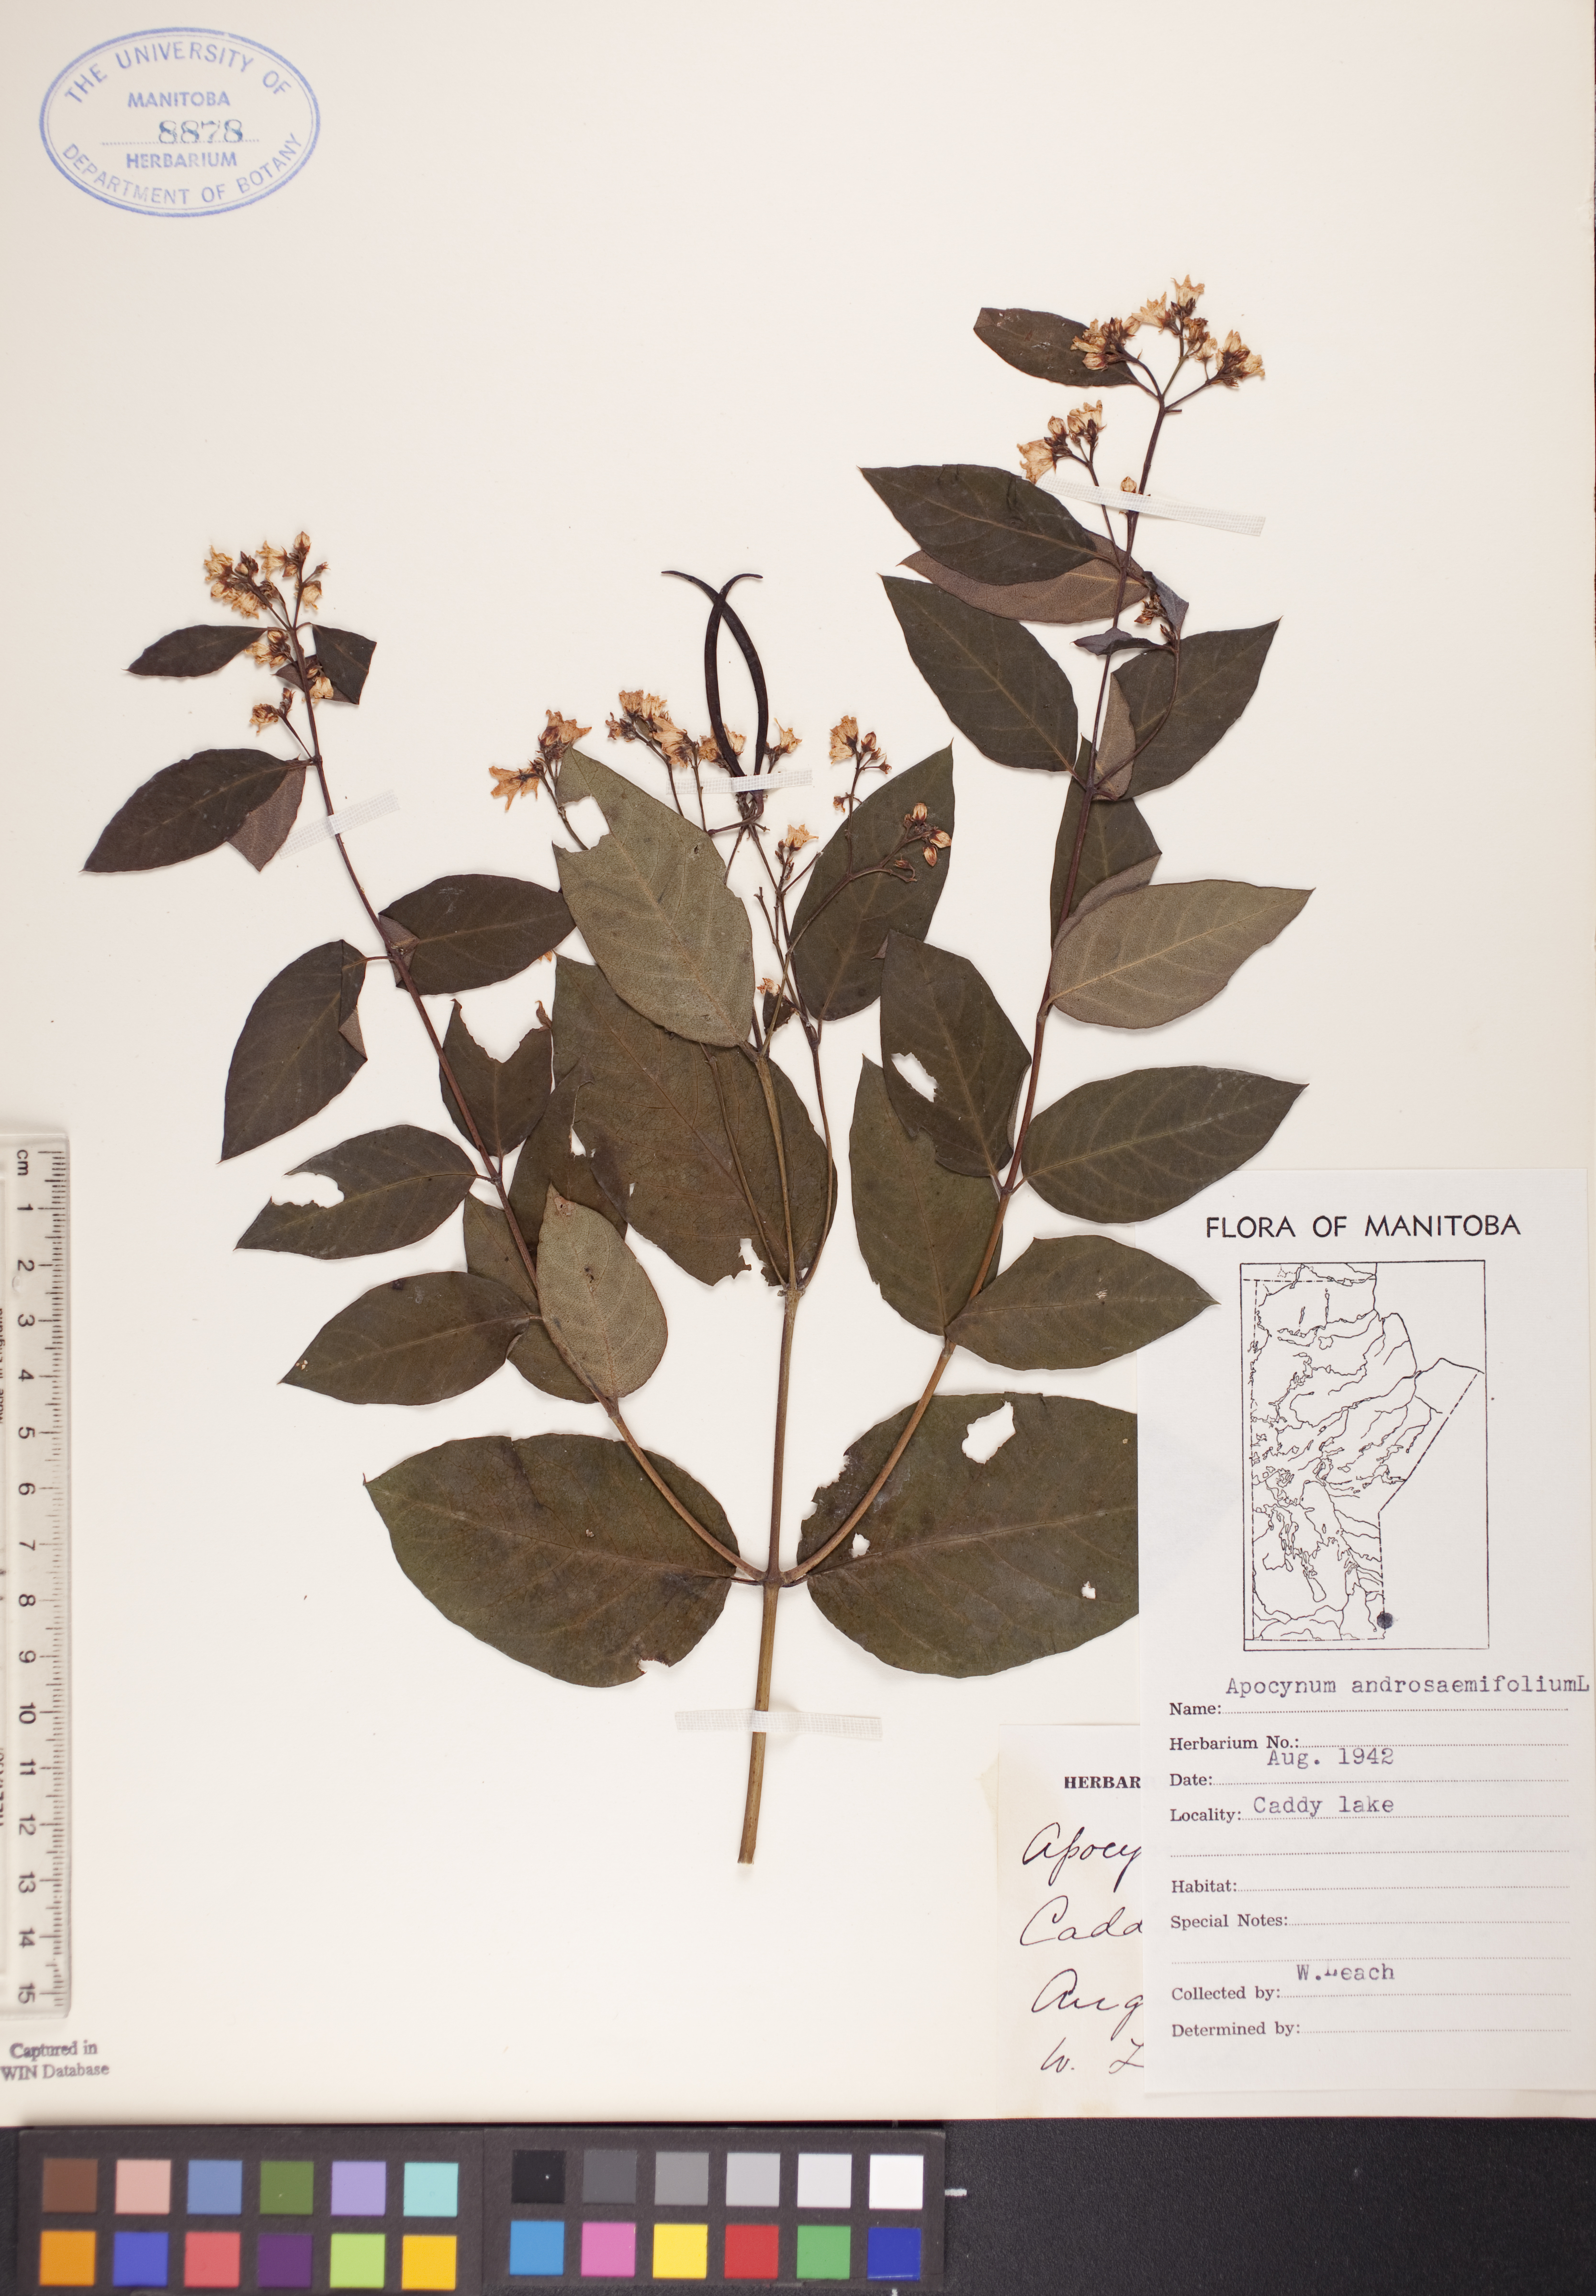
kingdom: Plantae
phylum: Tracheophyta
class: Magnoliopsida
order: Gentianales
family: Apocynaceae
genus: Apocynum
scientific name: Apocynum androsaemifolium
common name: Spreading dogbane
